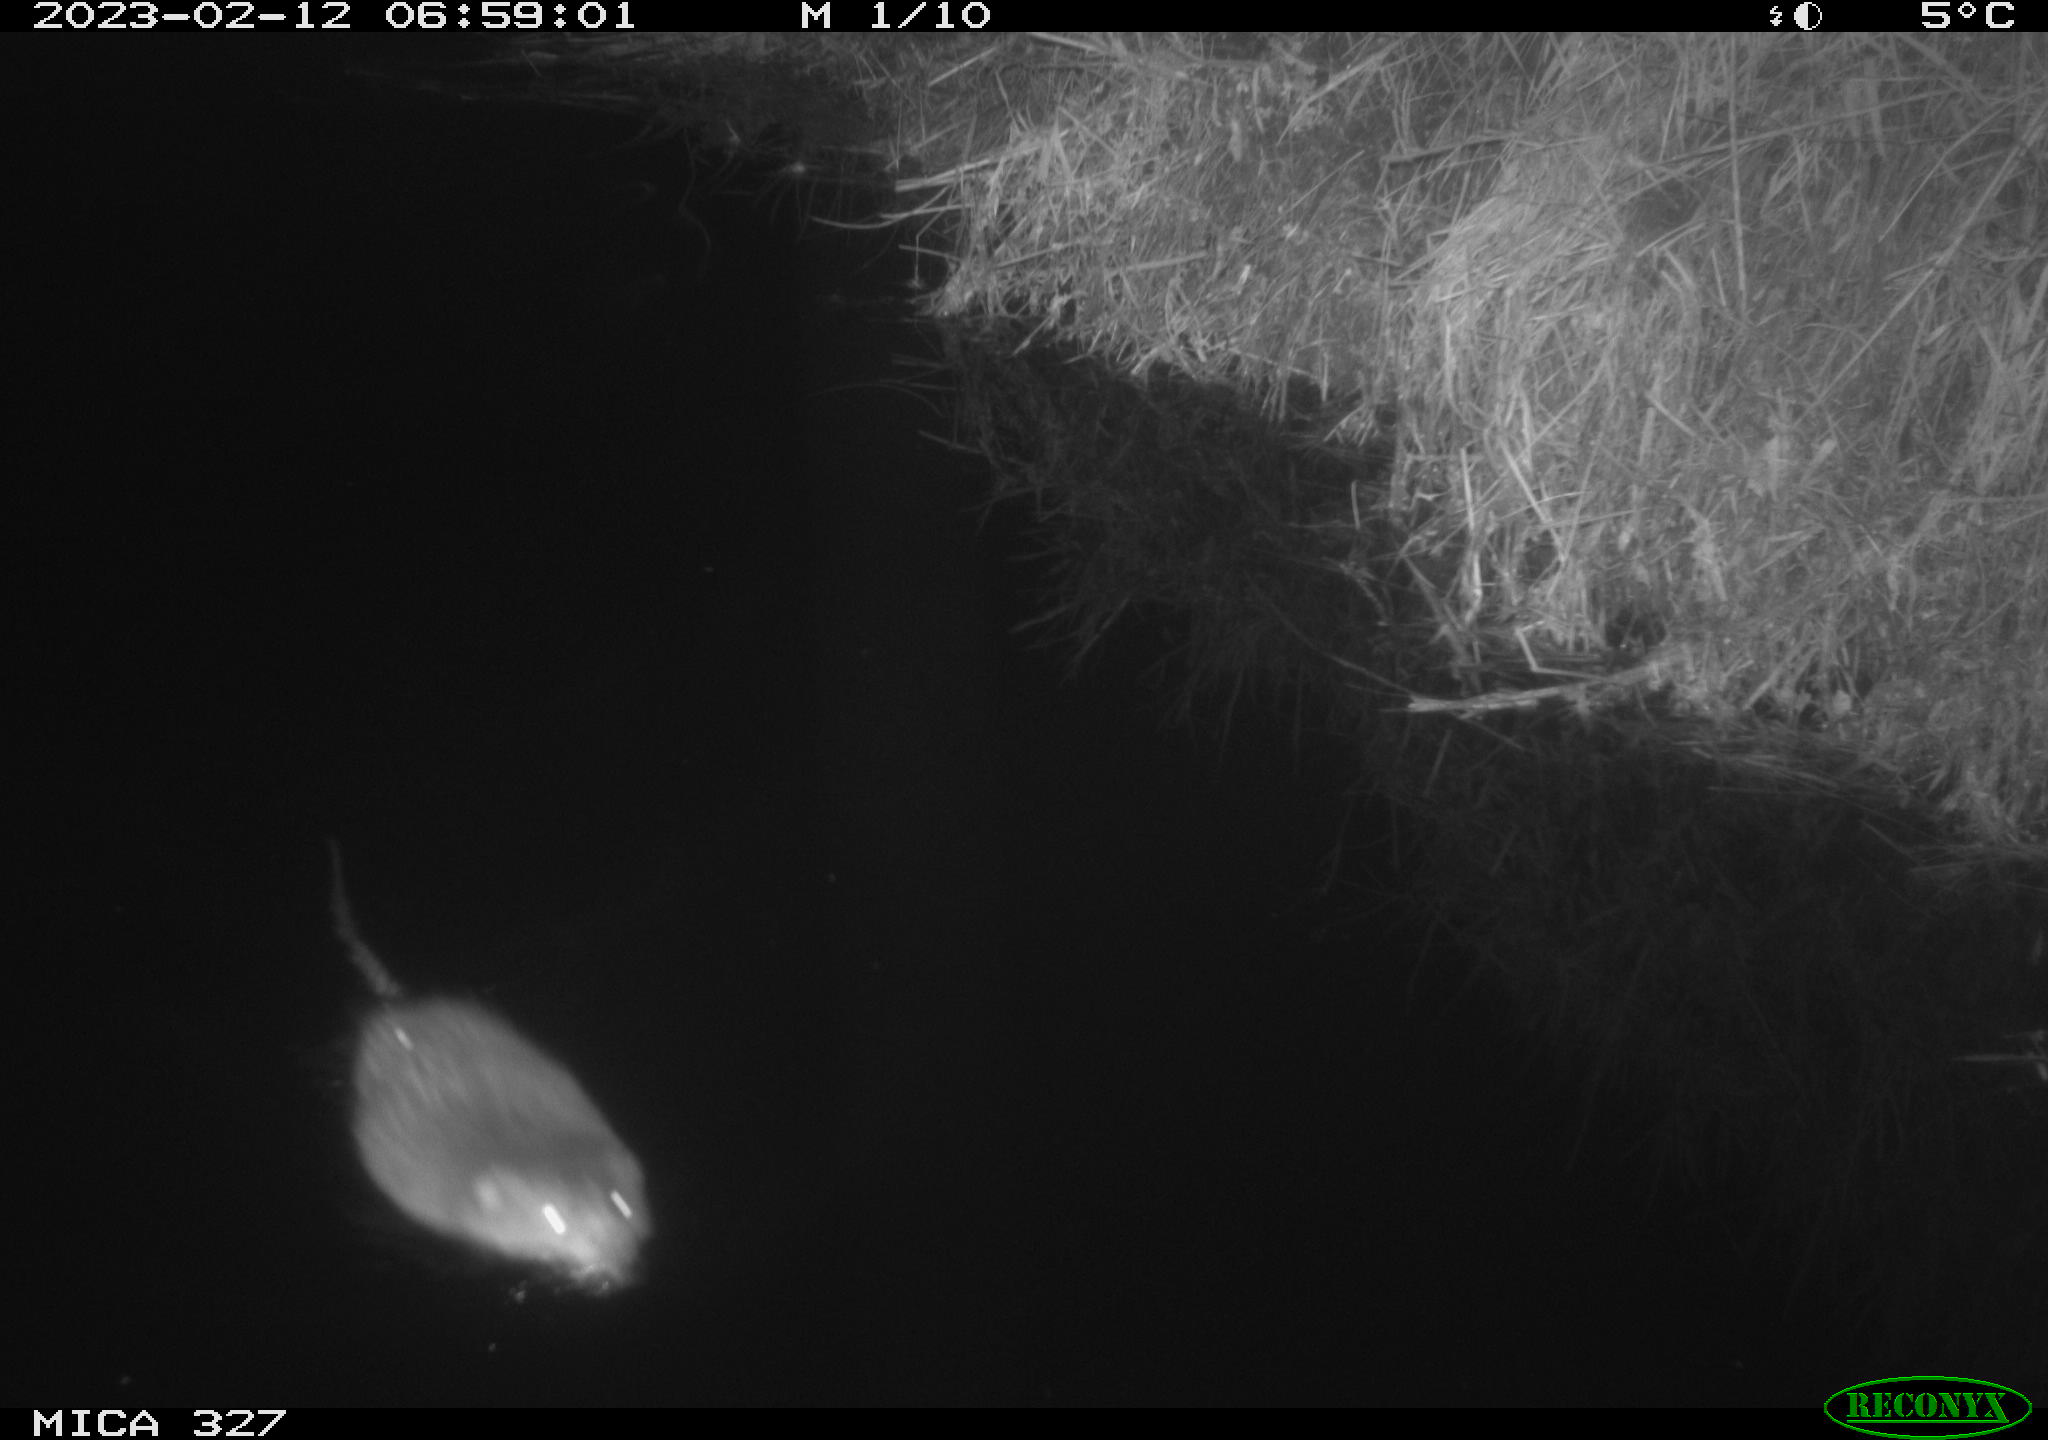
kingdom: Animalia
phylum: Chordata
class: Mammalia
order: Rodentia
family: Cricetidae
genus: Ondatra
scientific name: Ondatra zibethicus
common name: Muskrat
